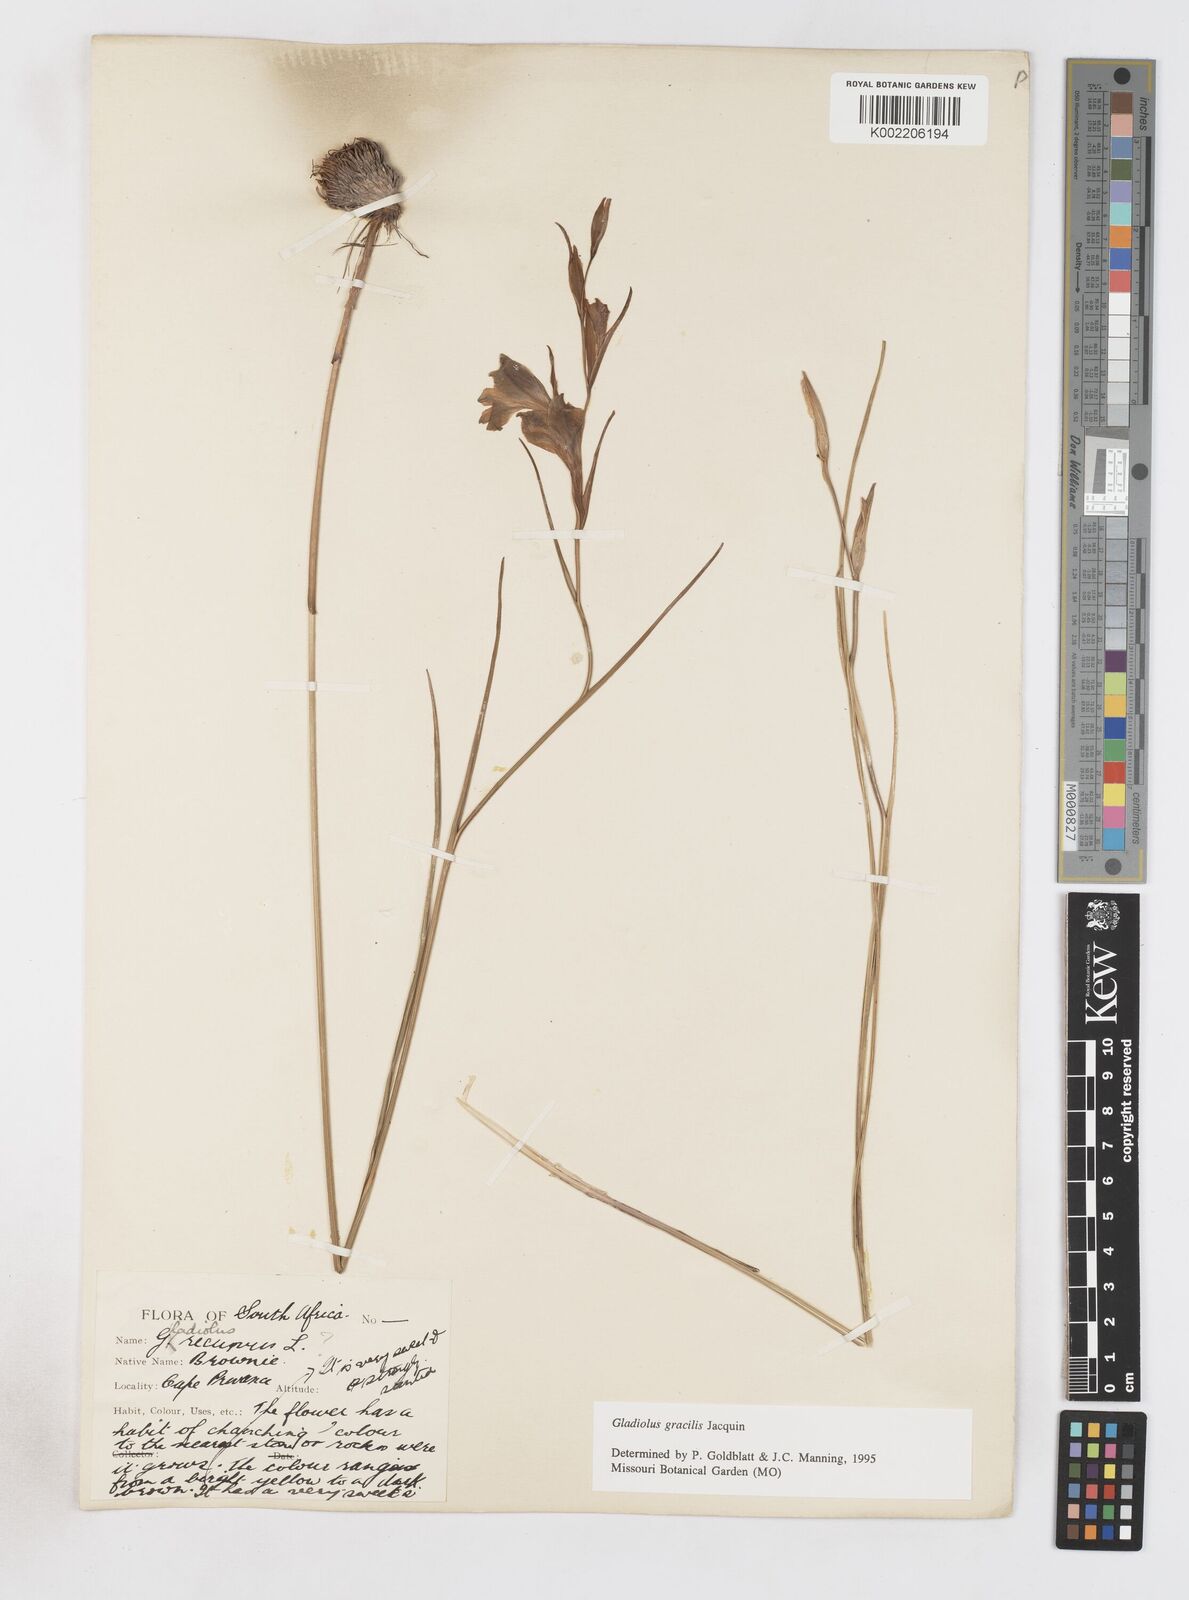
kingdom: Plantae
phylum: Tracheophyta
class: Liliopsida
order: Asparagales
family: Iridaceae
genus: Gladiolus
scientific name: Gladiolus gracilis
